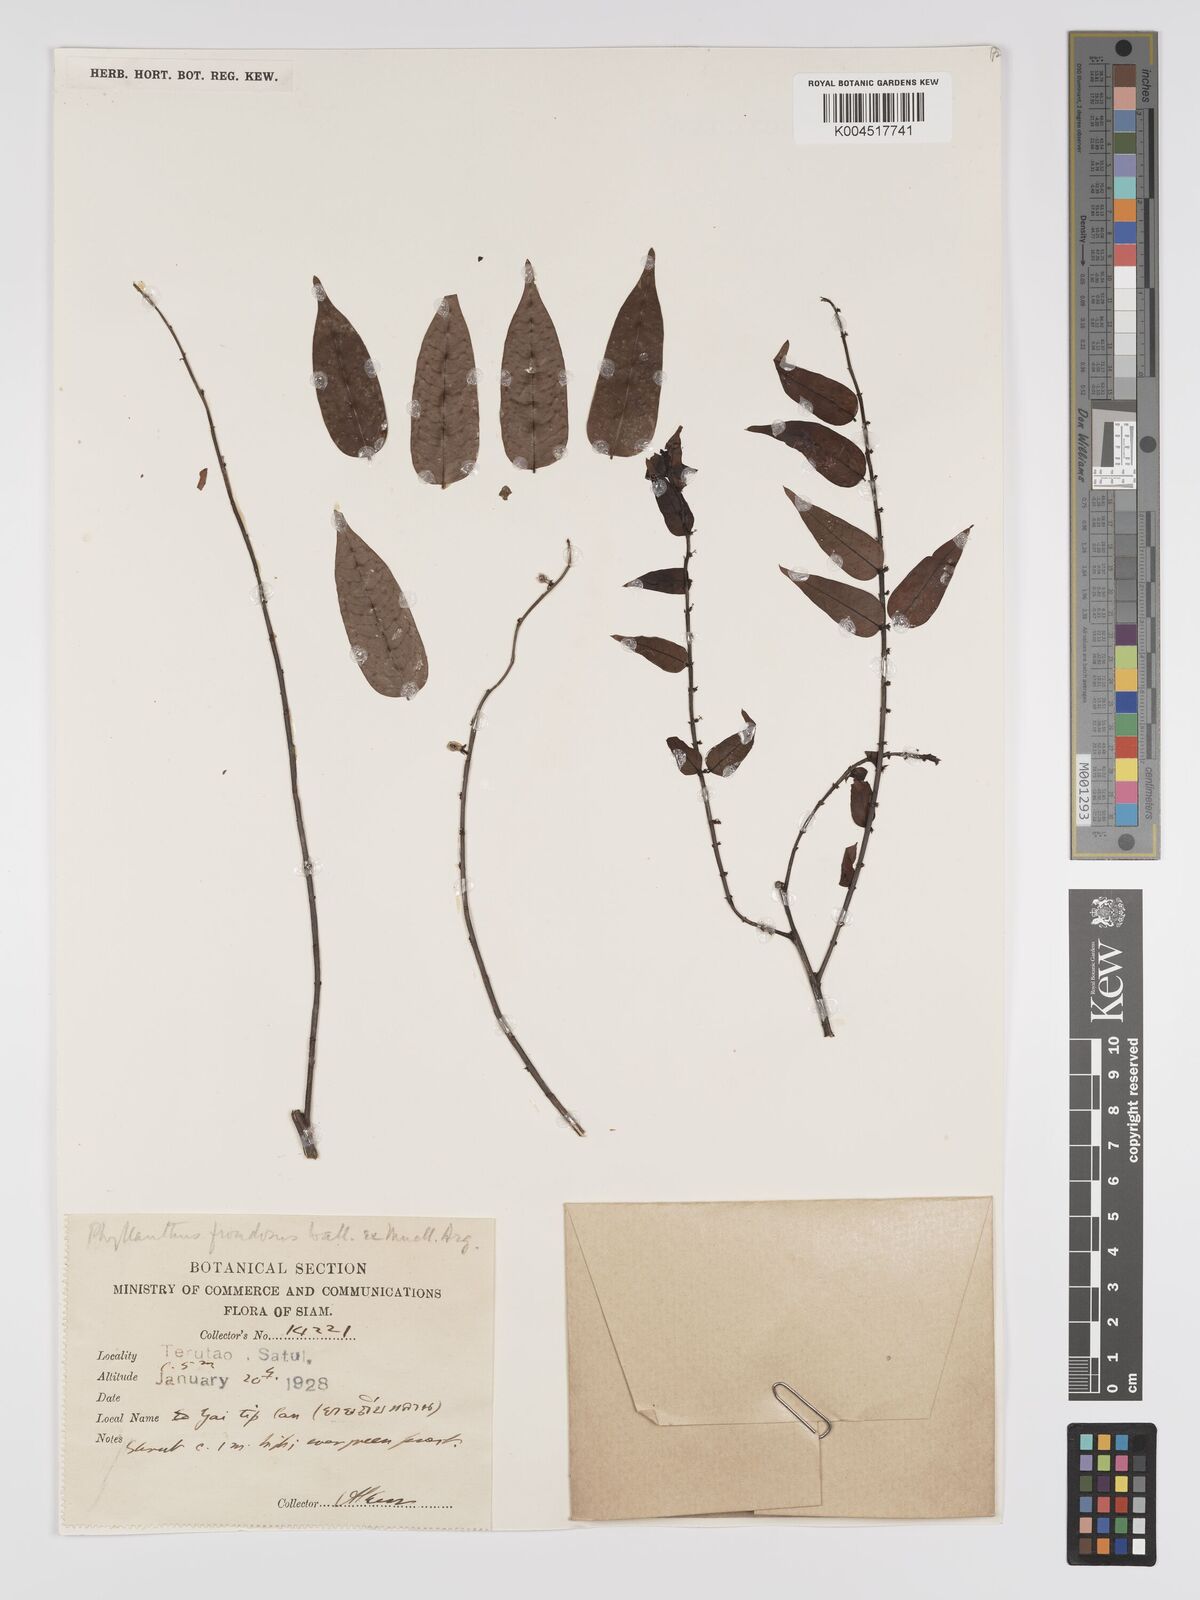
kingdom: Plantae
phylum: Tracheophyta
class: Magnoliopsida
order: Malpighiales
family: Phyllanthaceae
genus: Phyllanthus
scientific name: Phyllanthus
